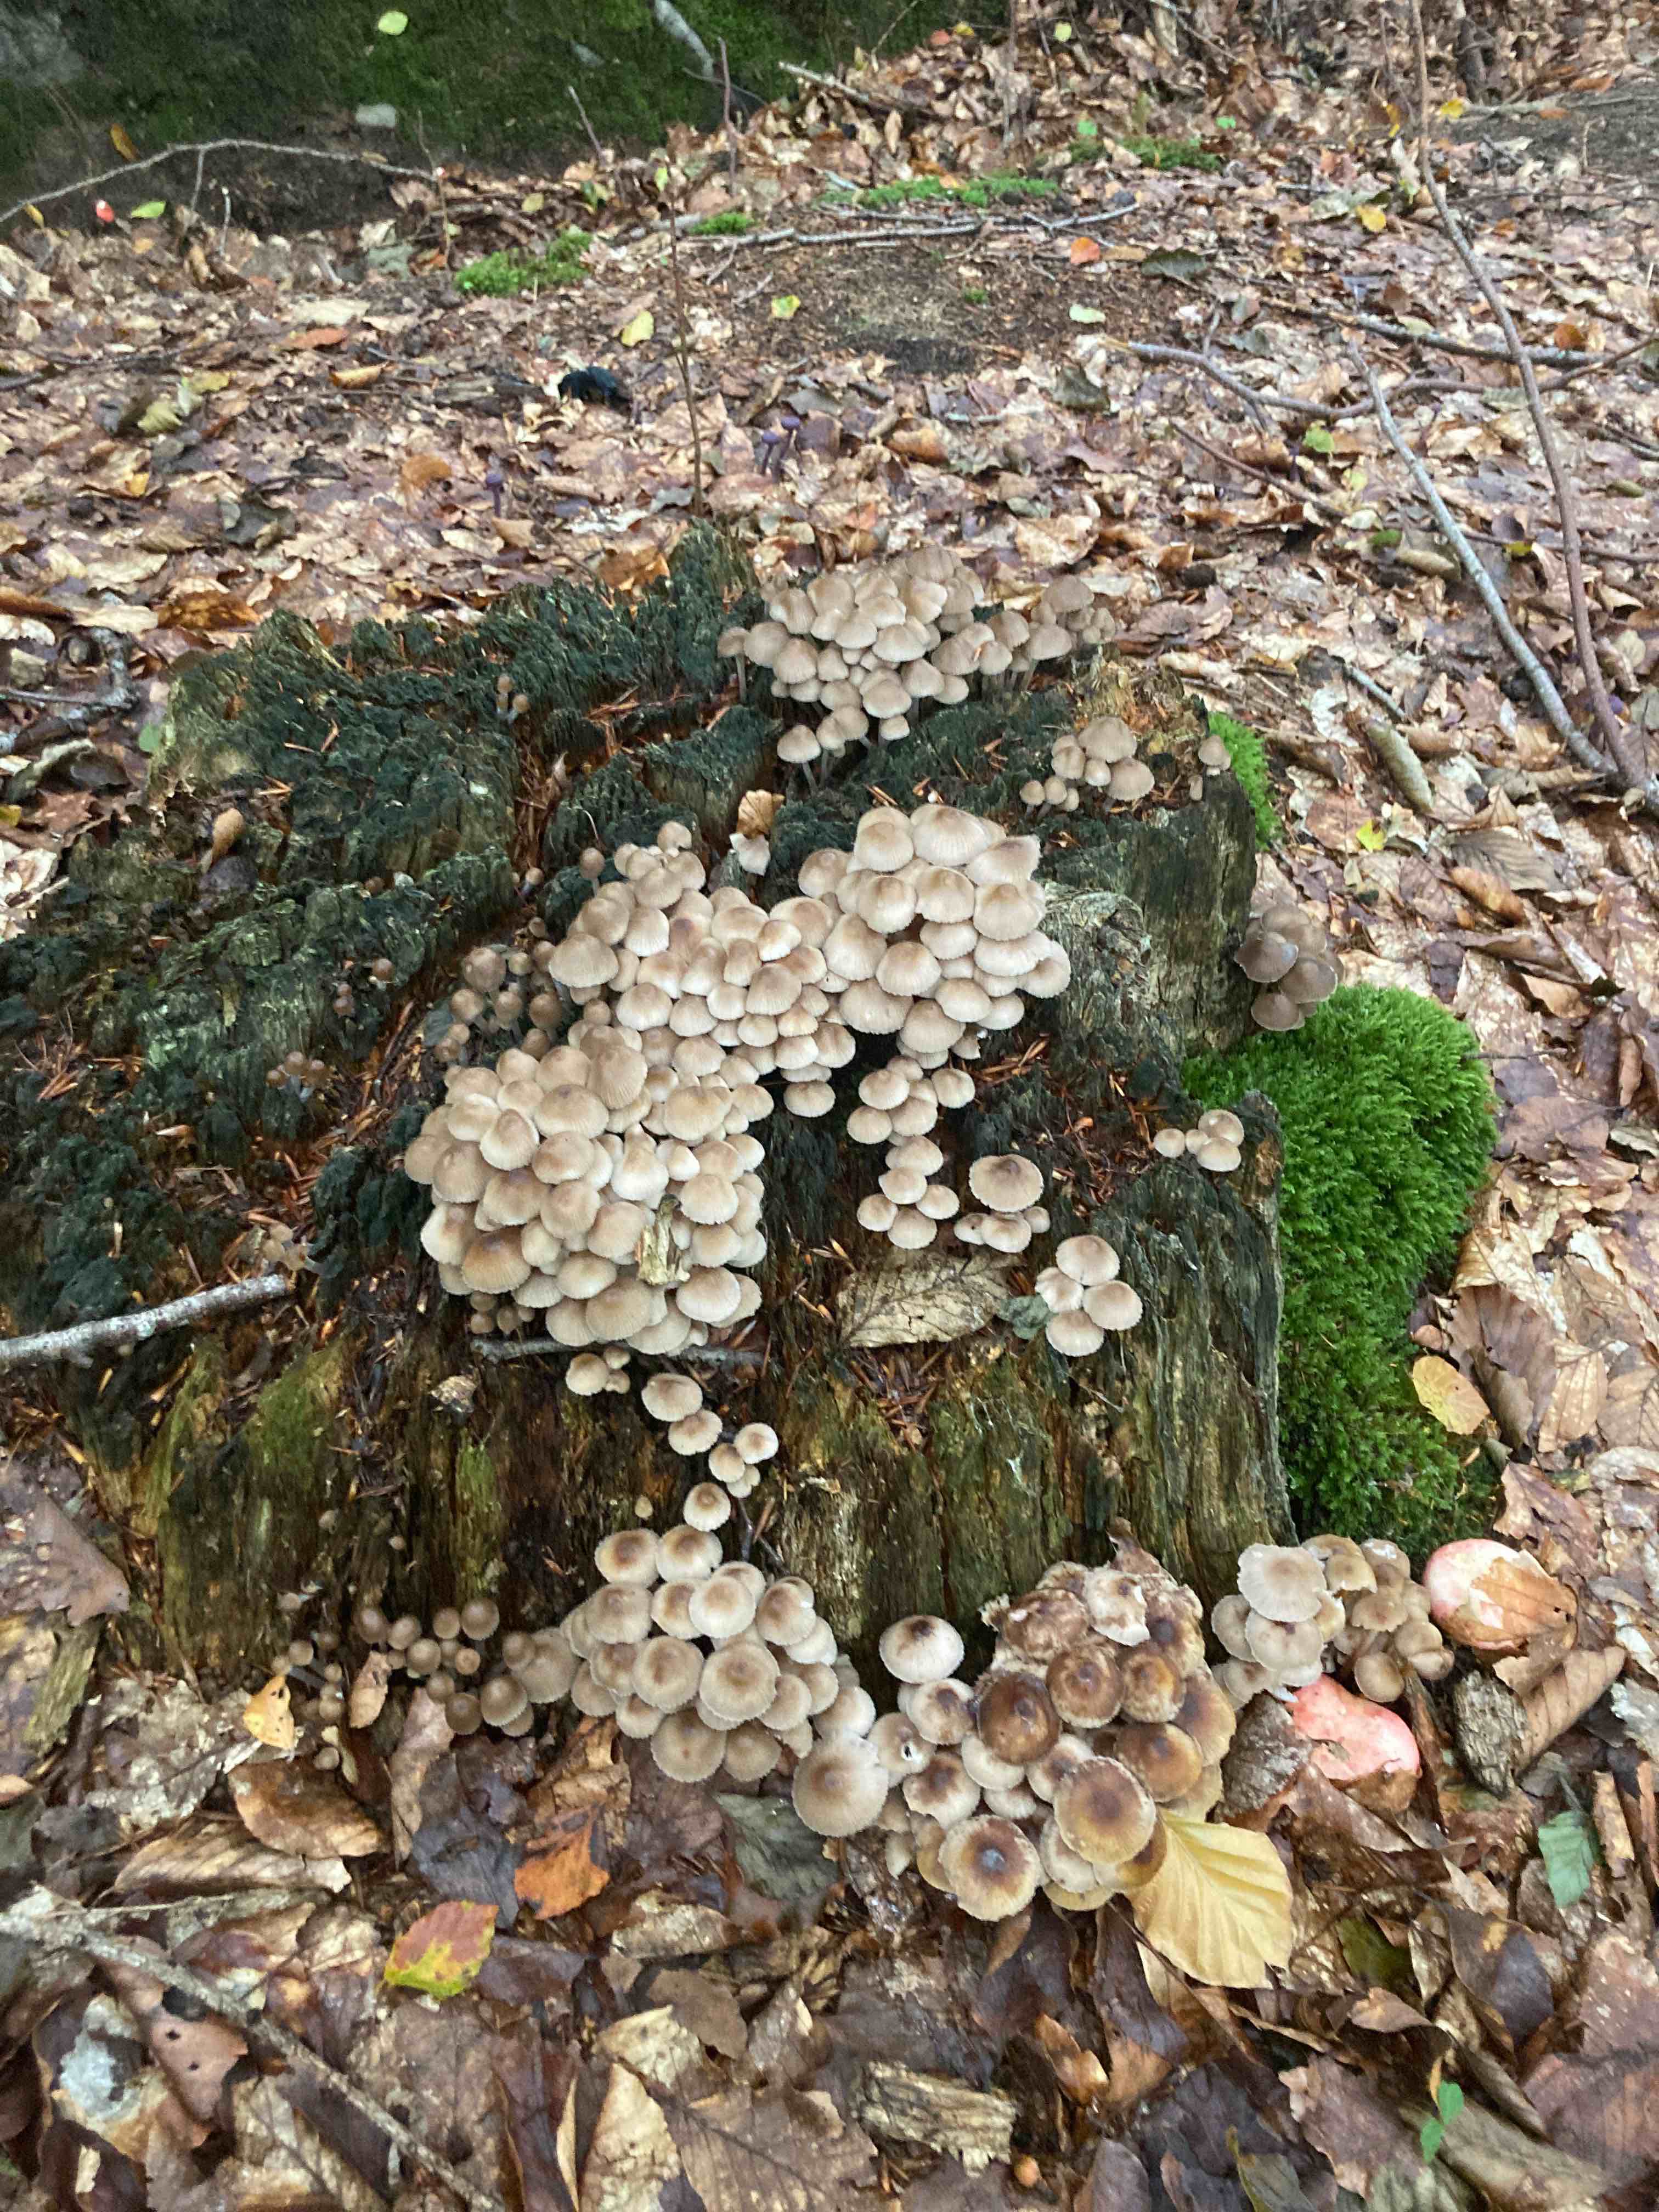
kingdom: Fungi
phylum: Basidiomycota
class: Agaricomycetes
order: Agaricales
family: Mycenaceae
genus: Mycena
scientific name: Mycena
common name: huesvamp
